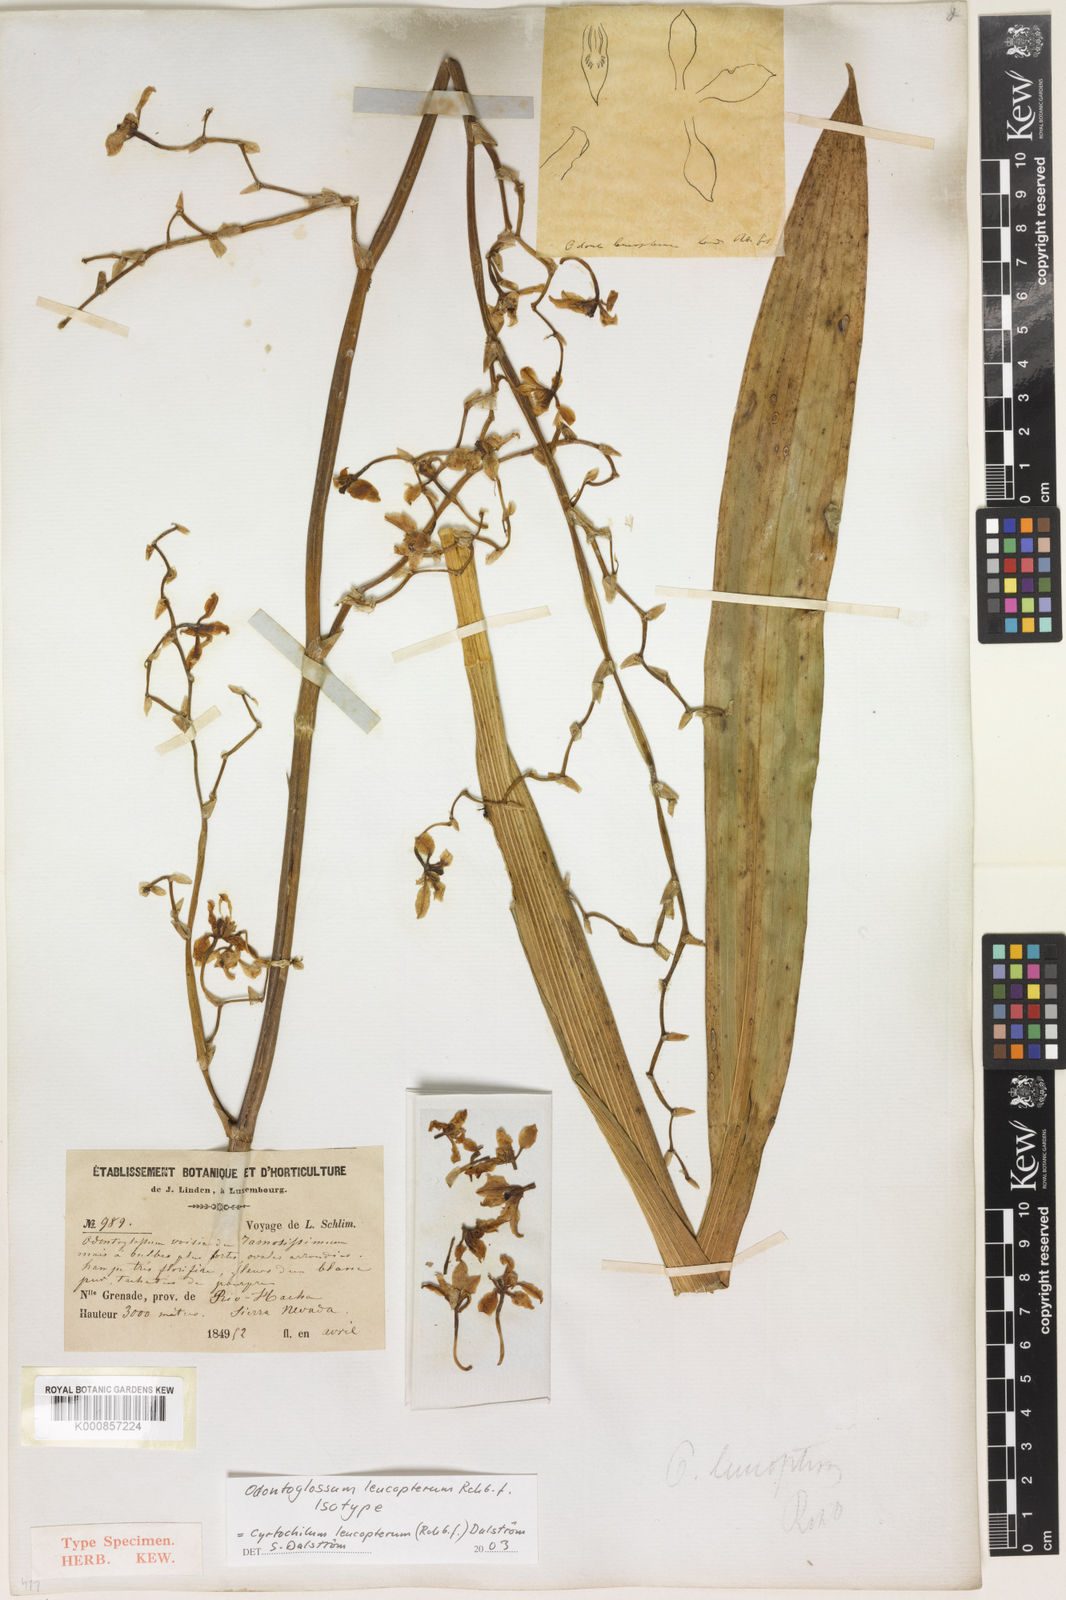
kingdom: Plantae
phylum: Tracheophyta
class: Liliopsida
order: Asparagales
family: Orchidaceae
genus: Cyrtochilum
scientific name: Cyrtochilum
